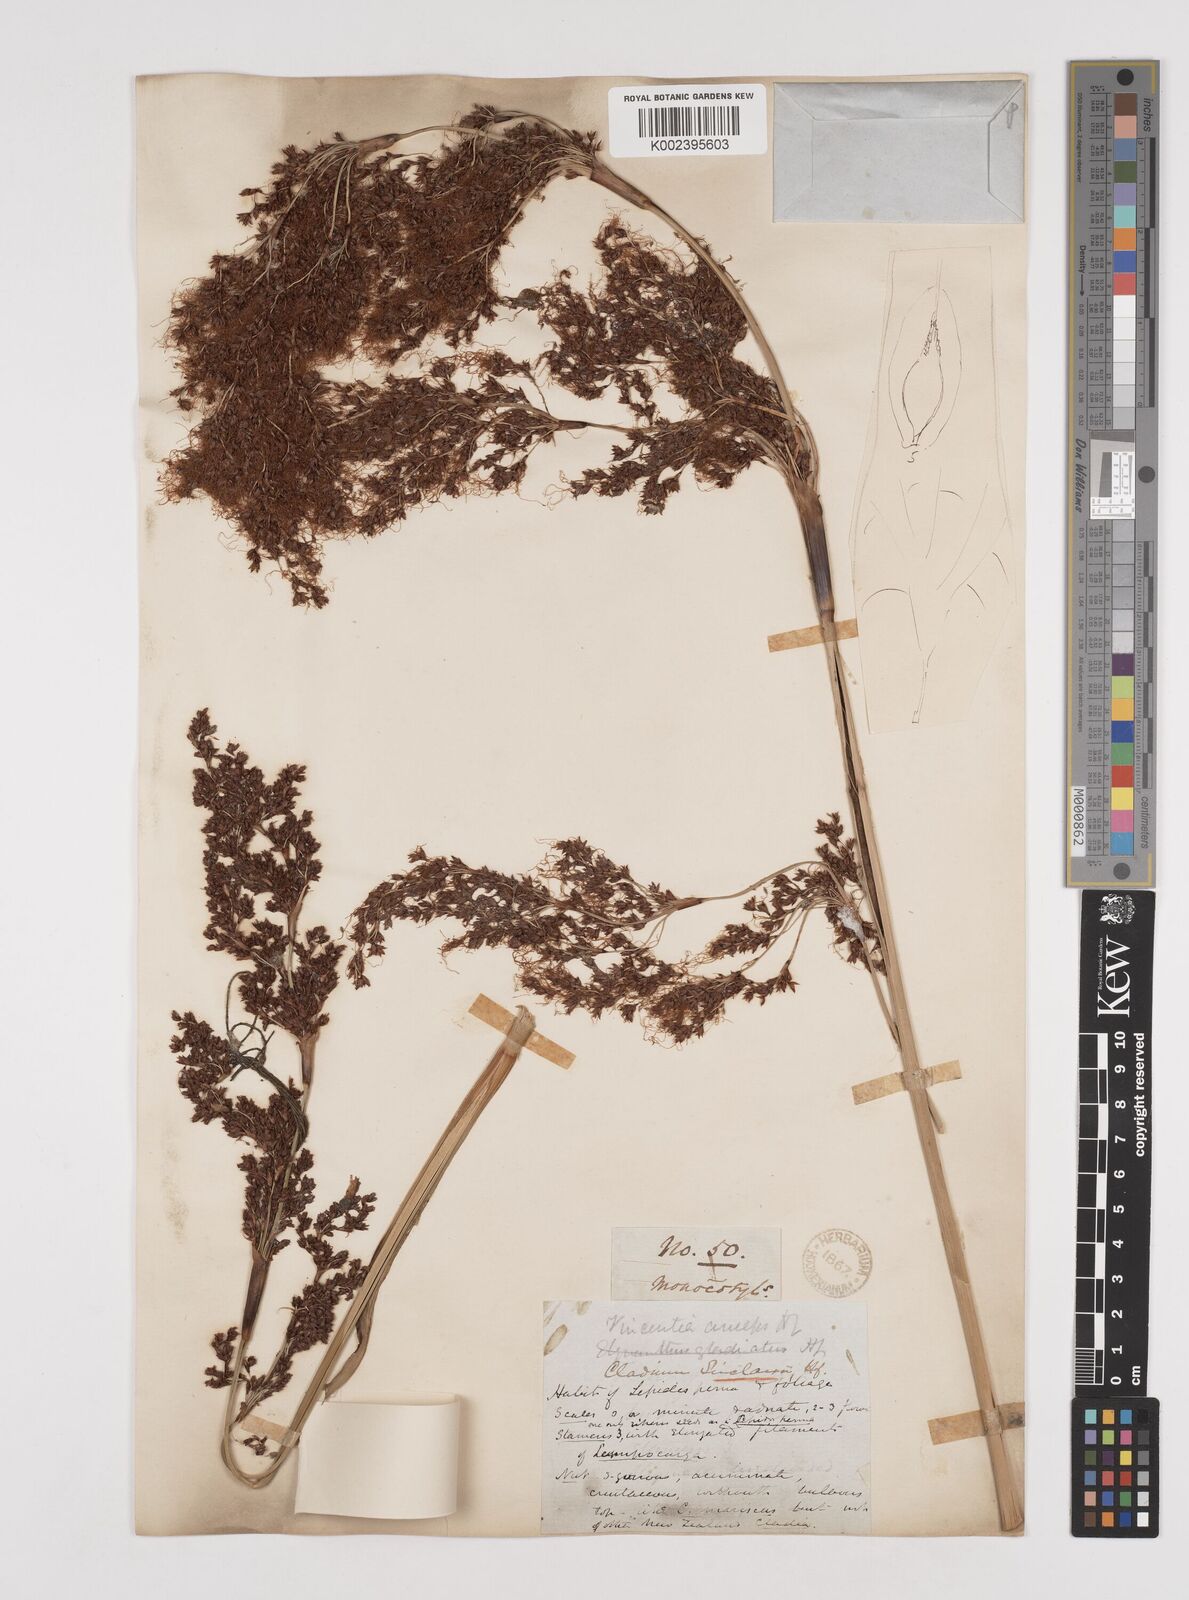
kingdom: Plantae
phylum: Tracheophyta
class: Liliopsida
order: Poales
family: Cyperaceae
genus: Machaerina
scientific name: Machaerina sinclairii
